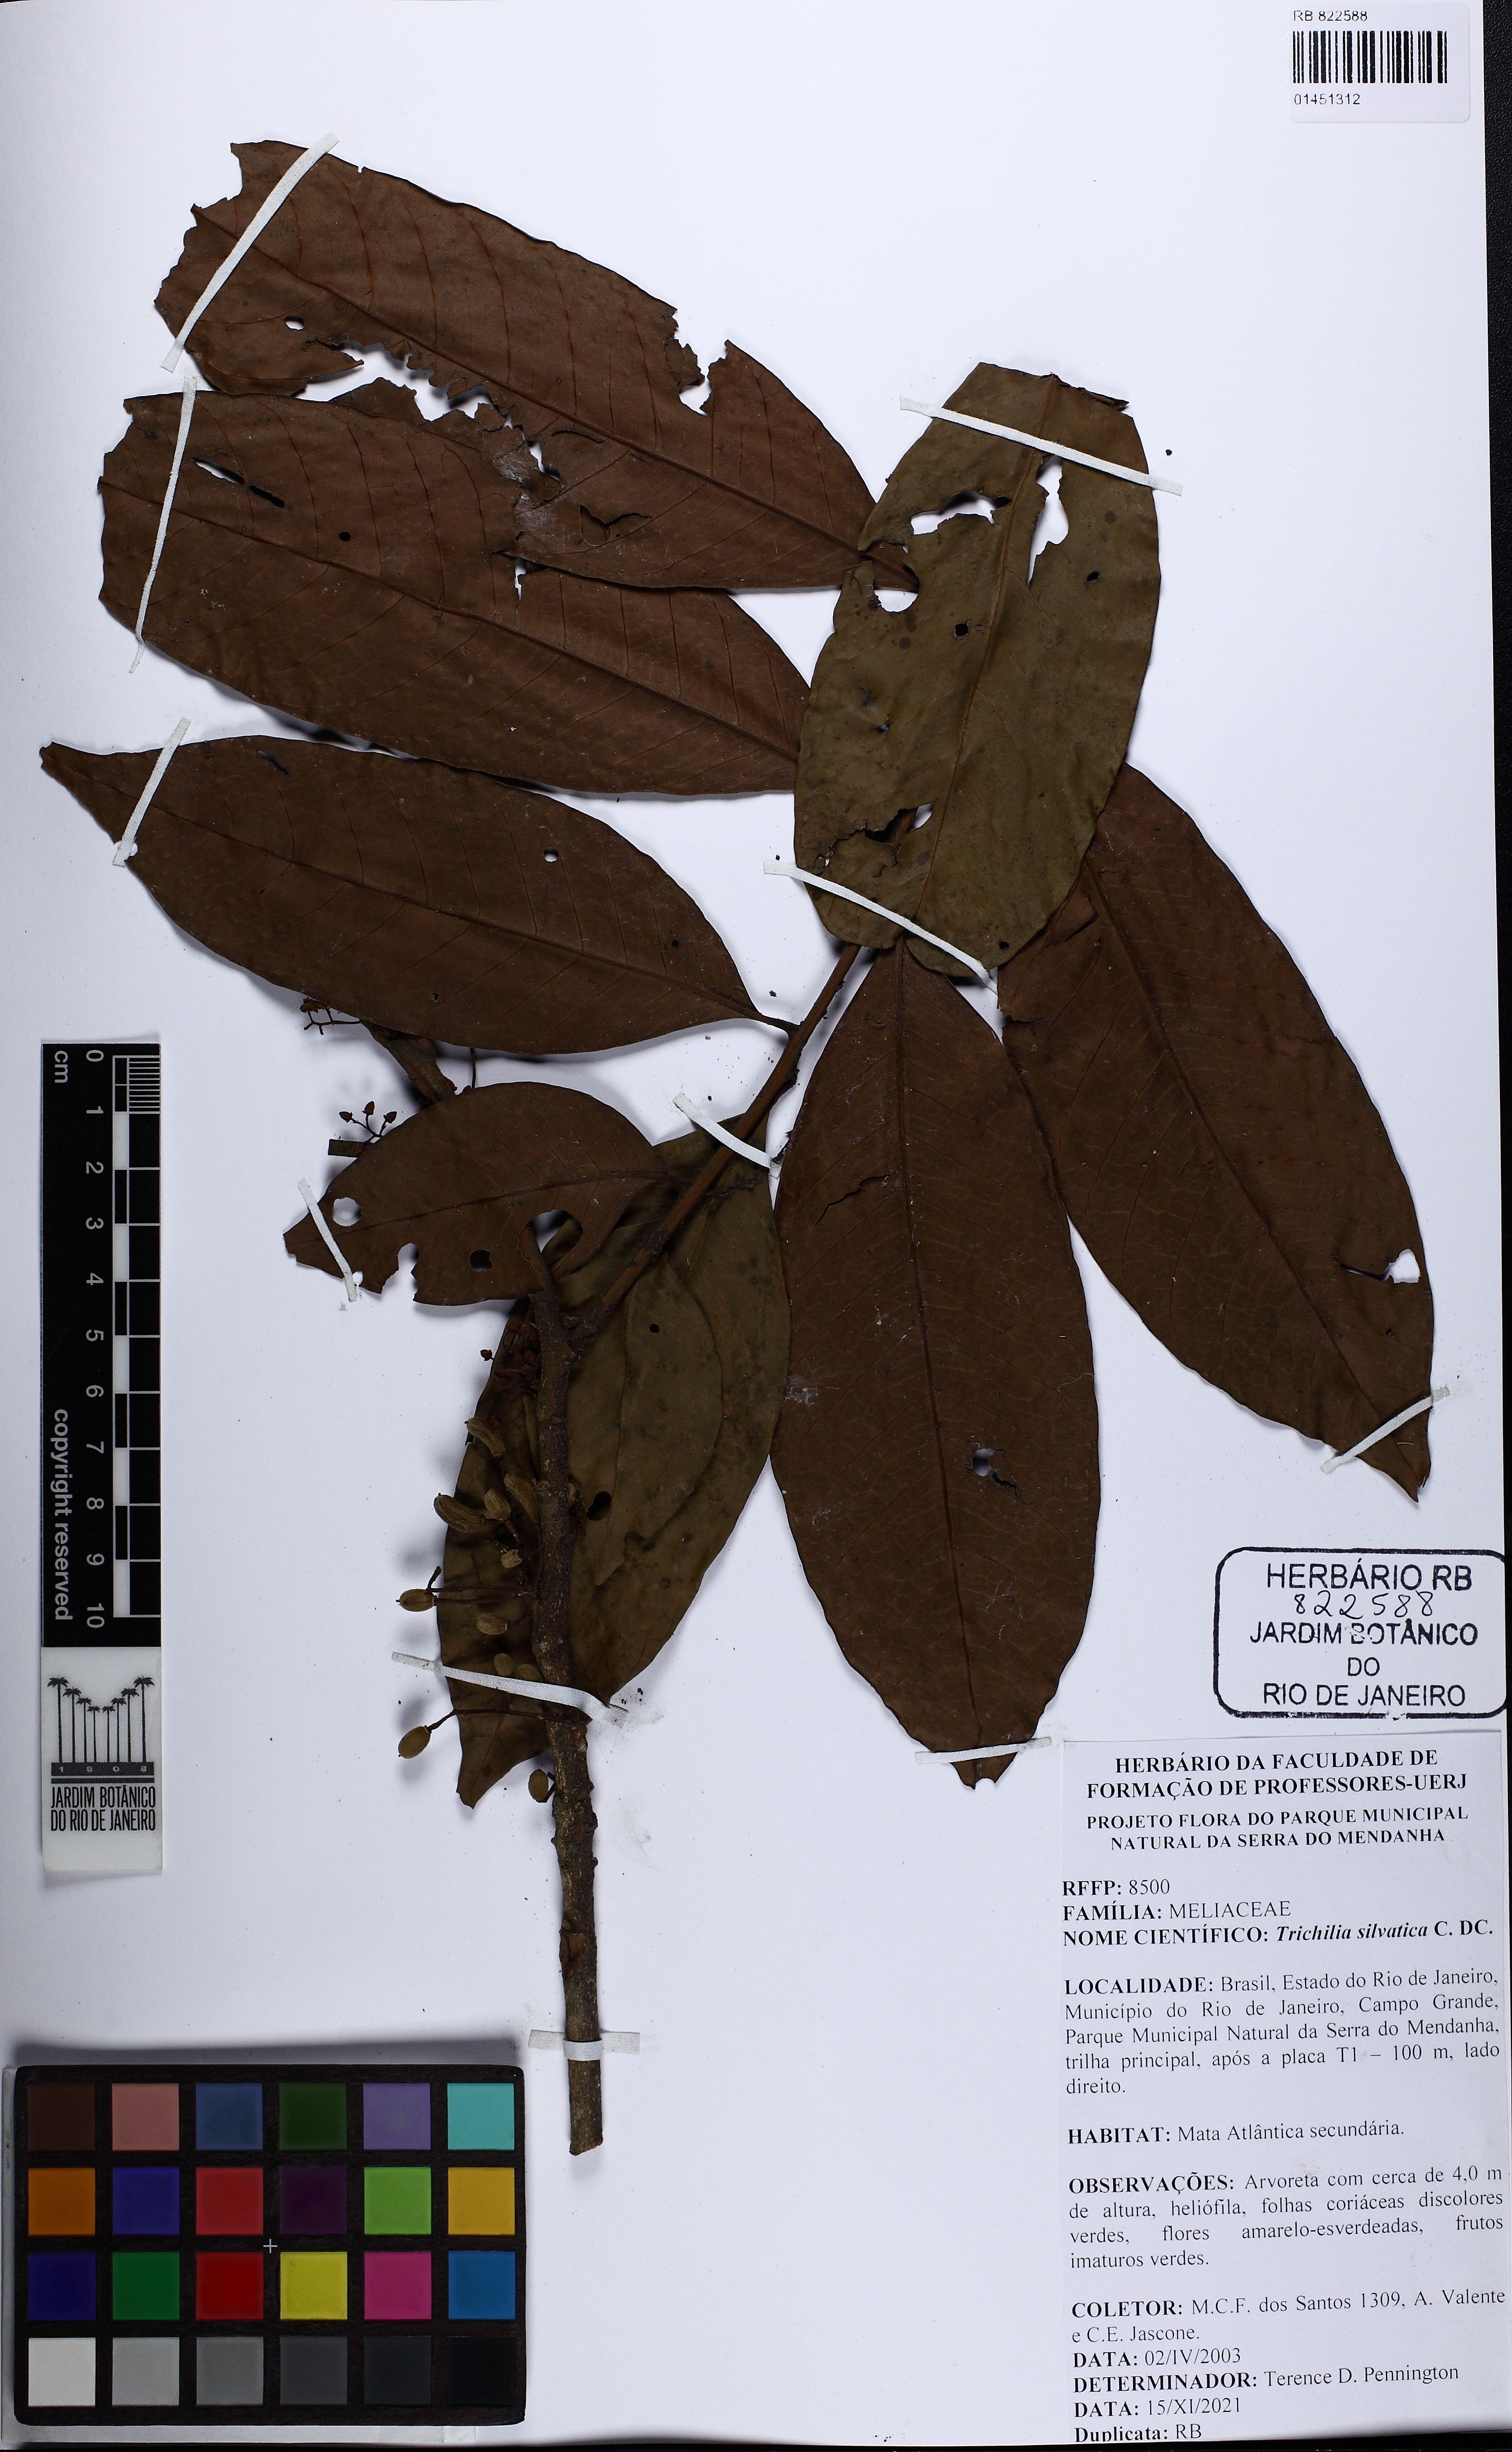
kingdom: Plantae
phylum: Tracheophyta
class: Magnoliopsida
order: Sapindales
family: Meliaceae
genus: Trichilia
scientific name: Trichilia silvatica
